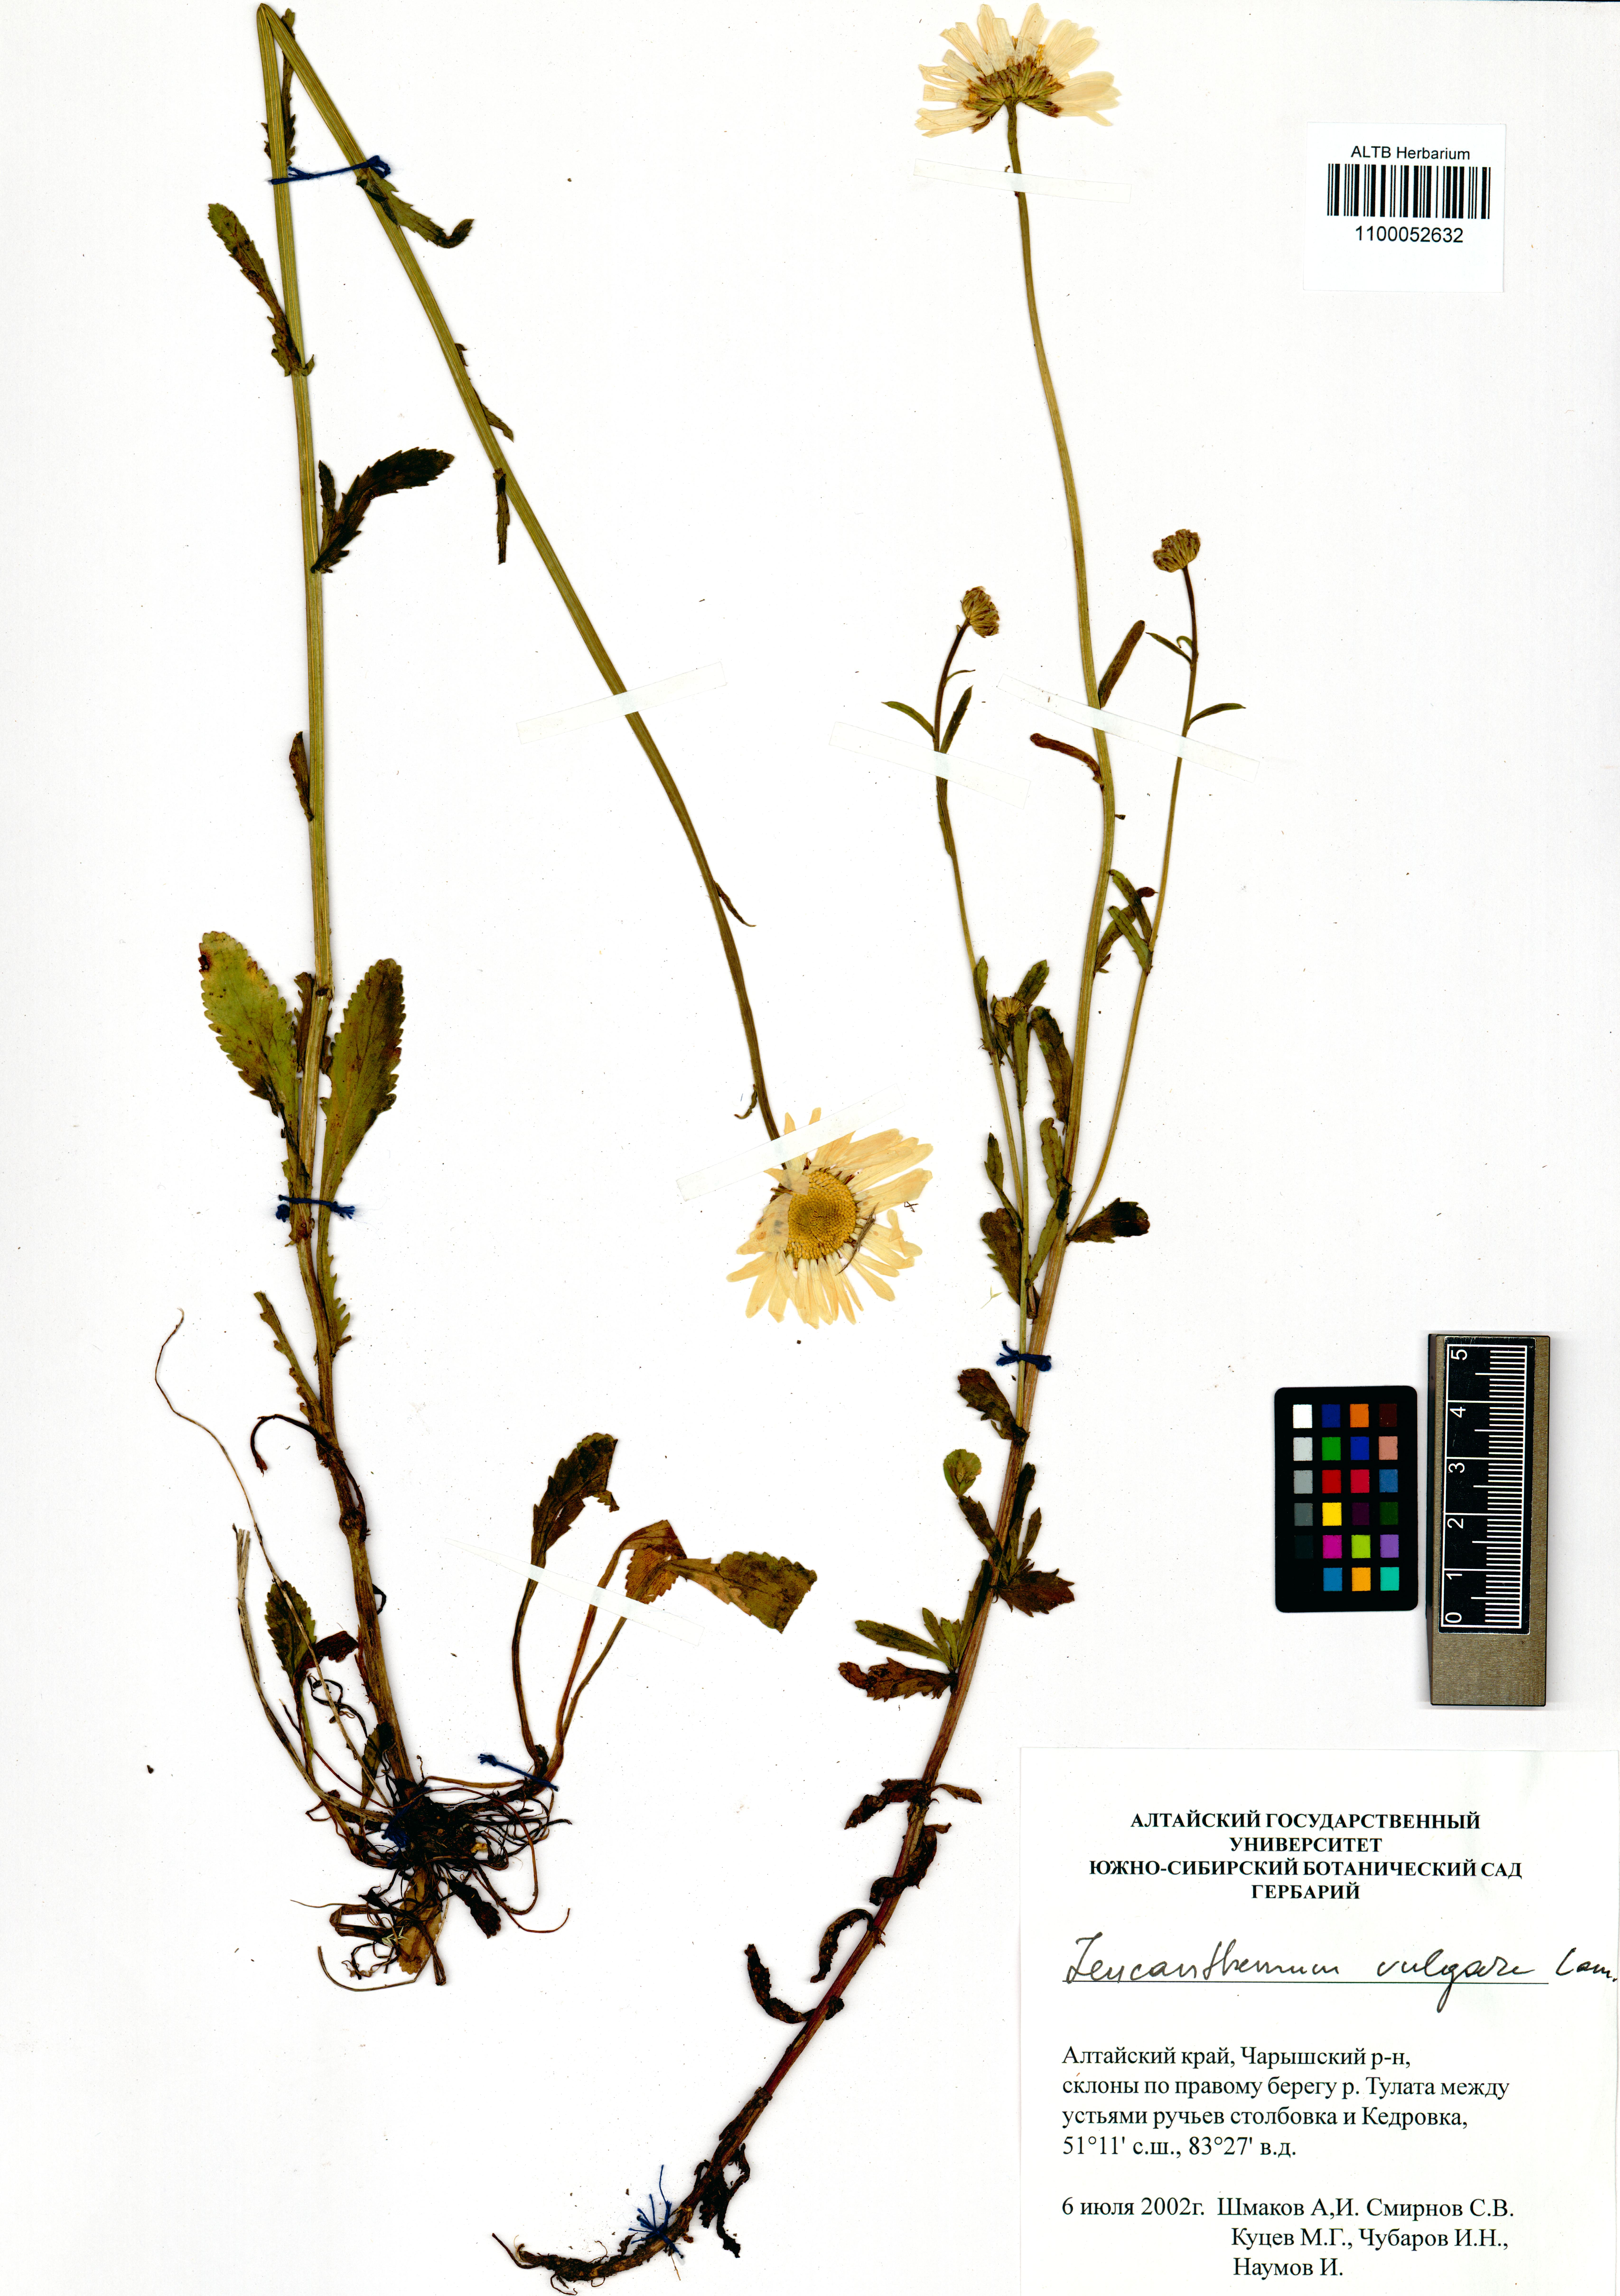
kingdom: Plantae
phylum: Tracheophyta
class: Magnoliopsida
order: Asterales
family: Asteraceae
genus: Leucanthemum
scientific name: Leucanthemum vulgare
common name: Oxeye daisy
